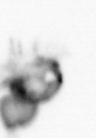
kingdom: Animalia
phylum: Arthropoda
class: Copepoda
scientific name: Copepoda
